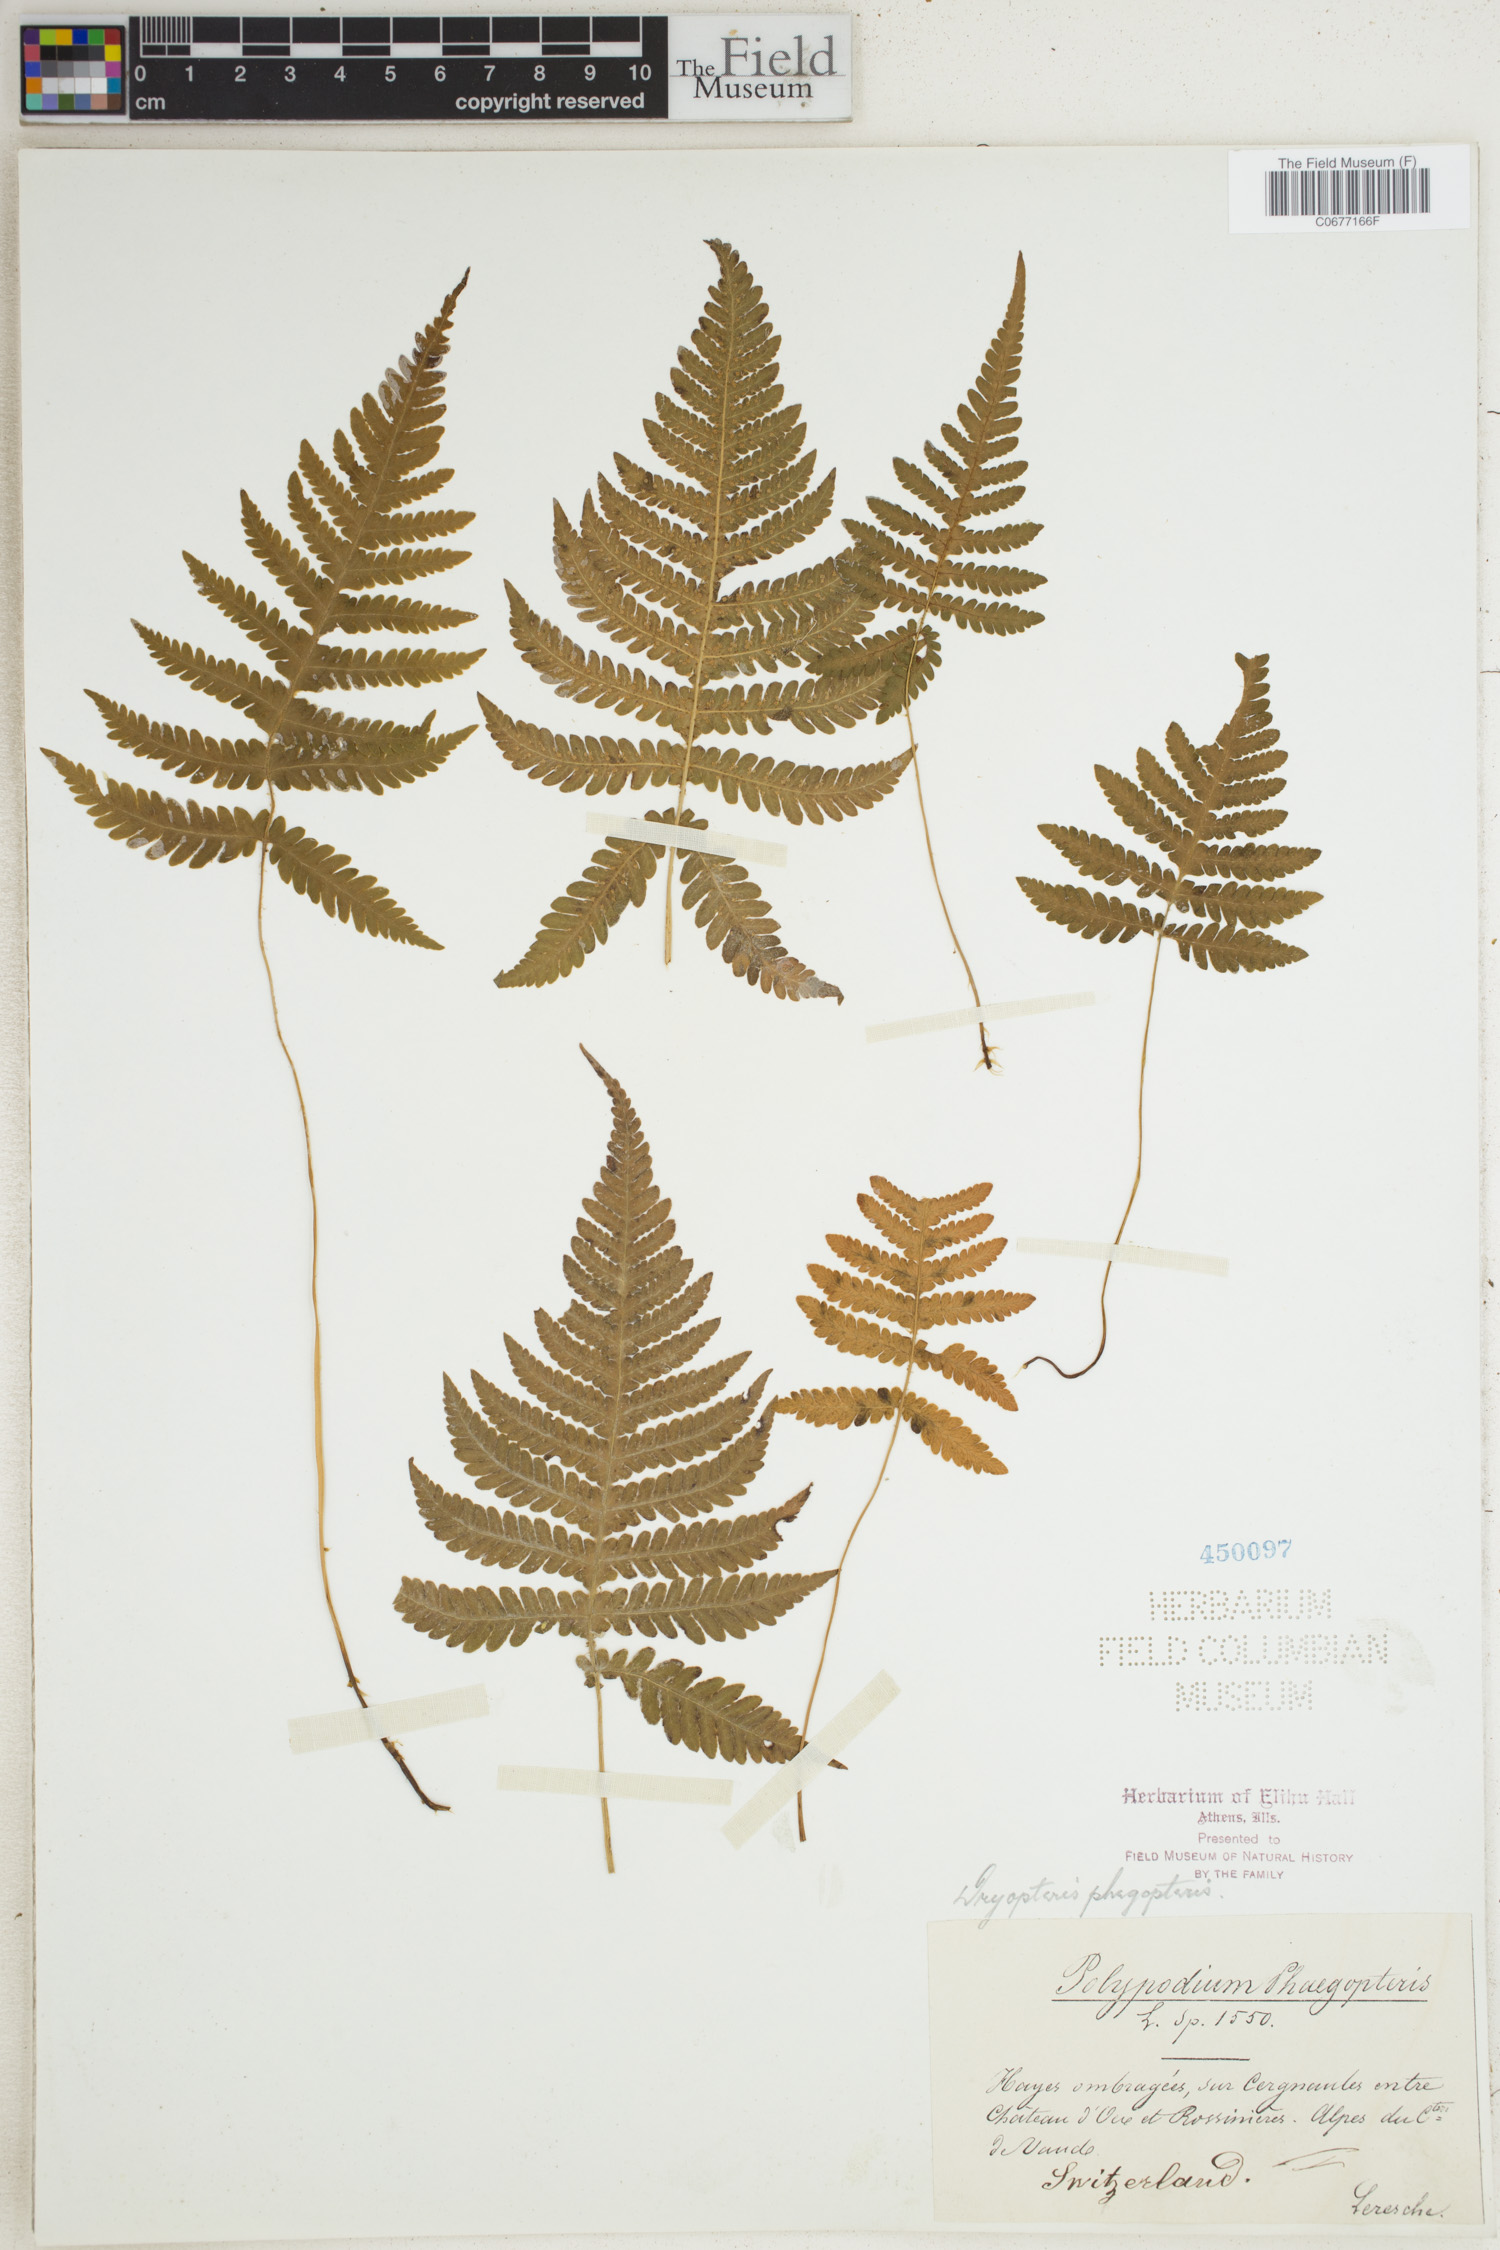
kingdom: Plantae
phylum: Tracheophyta
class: Polypodiopsida
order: Polypodiales
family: Thelypteridaceae
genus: Phegopteris
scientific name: Phegopteris connectilis
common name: Beech fern
